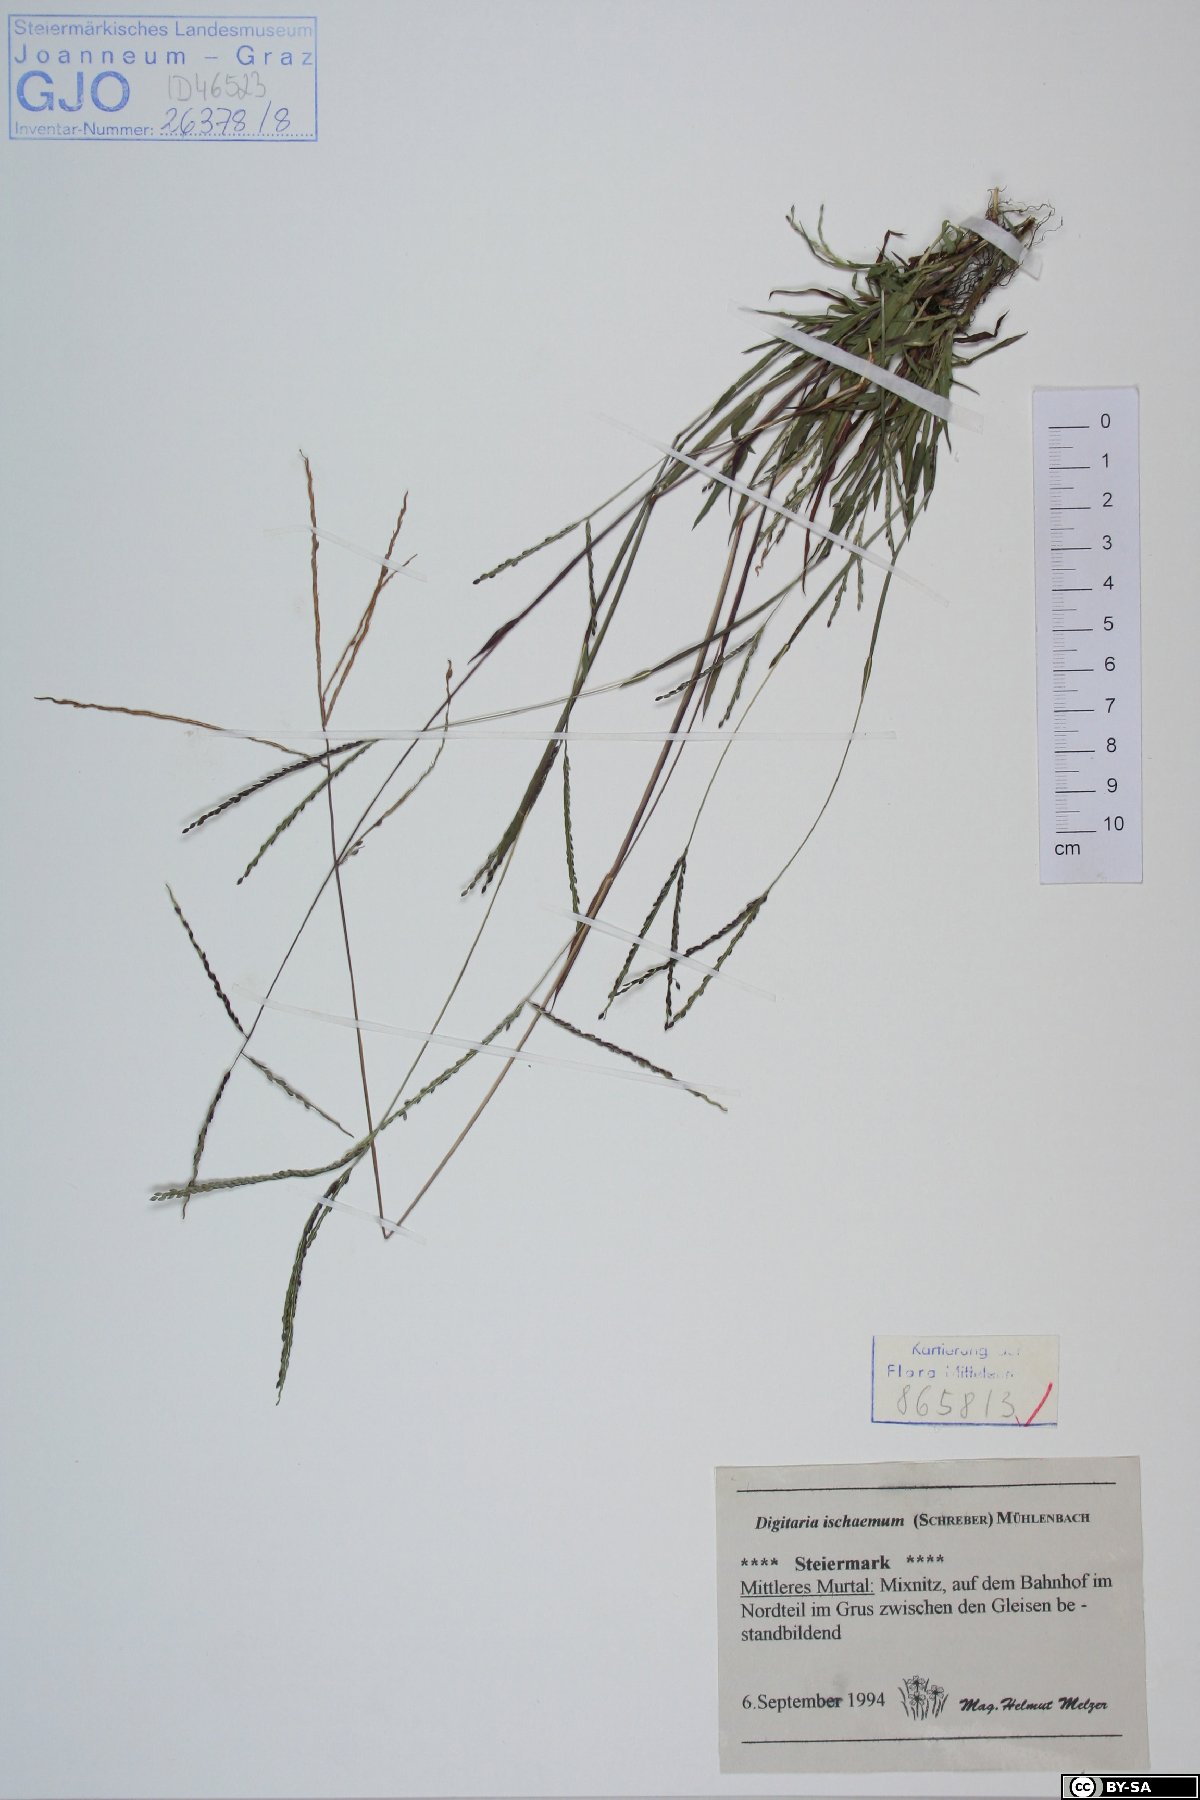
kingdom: Plantae
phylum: Tracheophyta
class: Liliopsida
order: Poales
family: Poaceae
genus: Digitaria
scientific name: Digitaria ischaemum
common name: Smooth crabgrass
